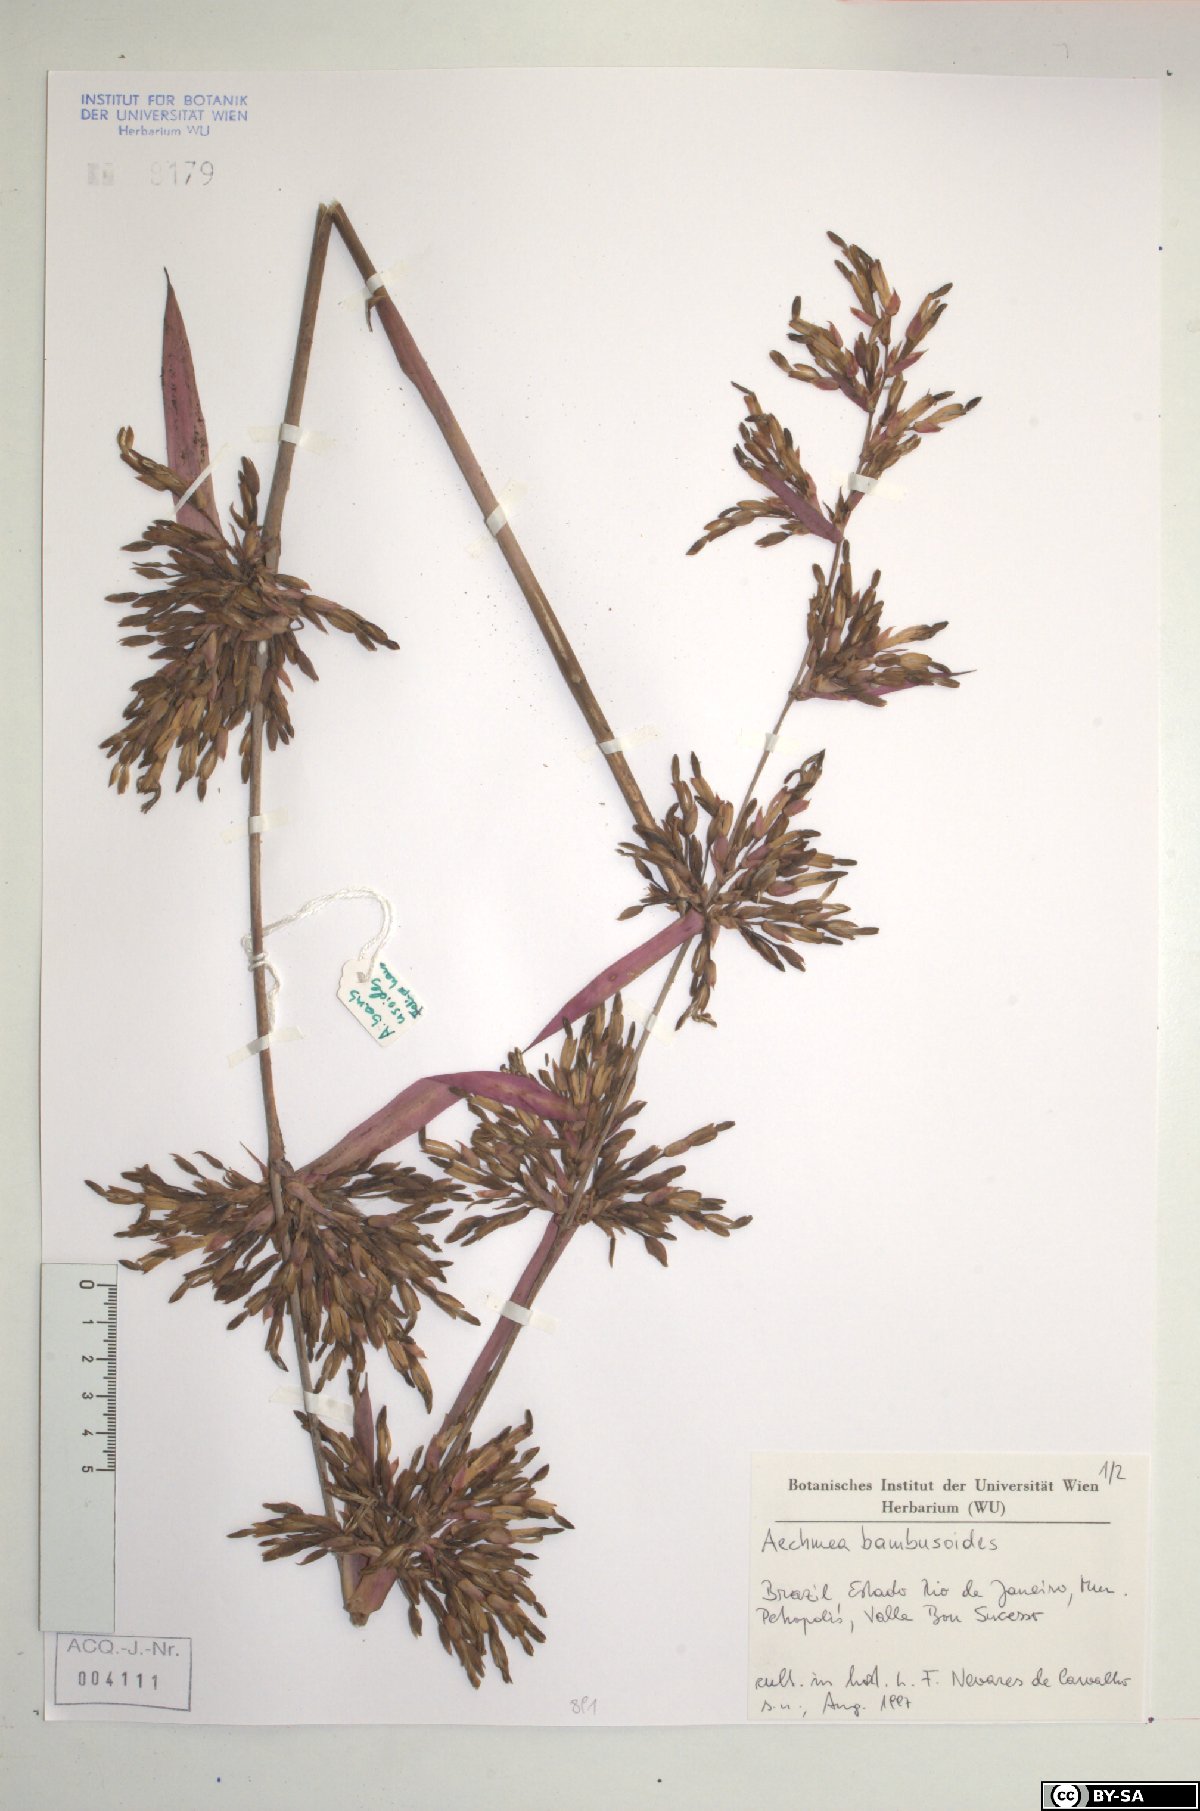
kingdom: Plantae
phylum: Tracheophyta
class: Liliopsida
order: Poales
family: Bromeliaceae
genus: Aechmea
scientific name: Aechmea
